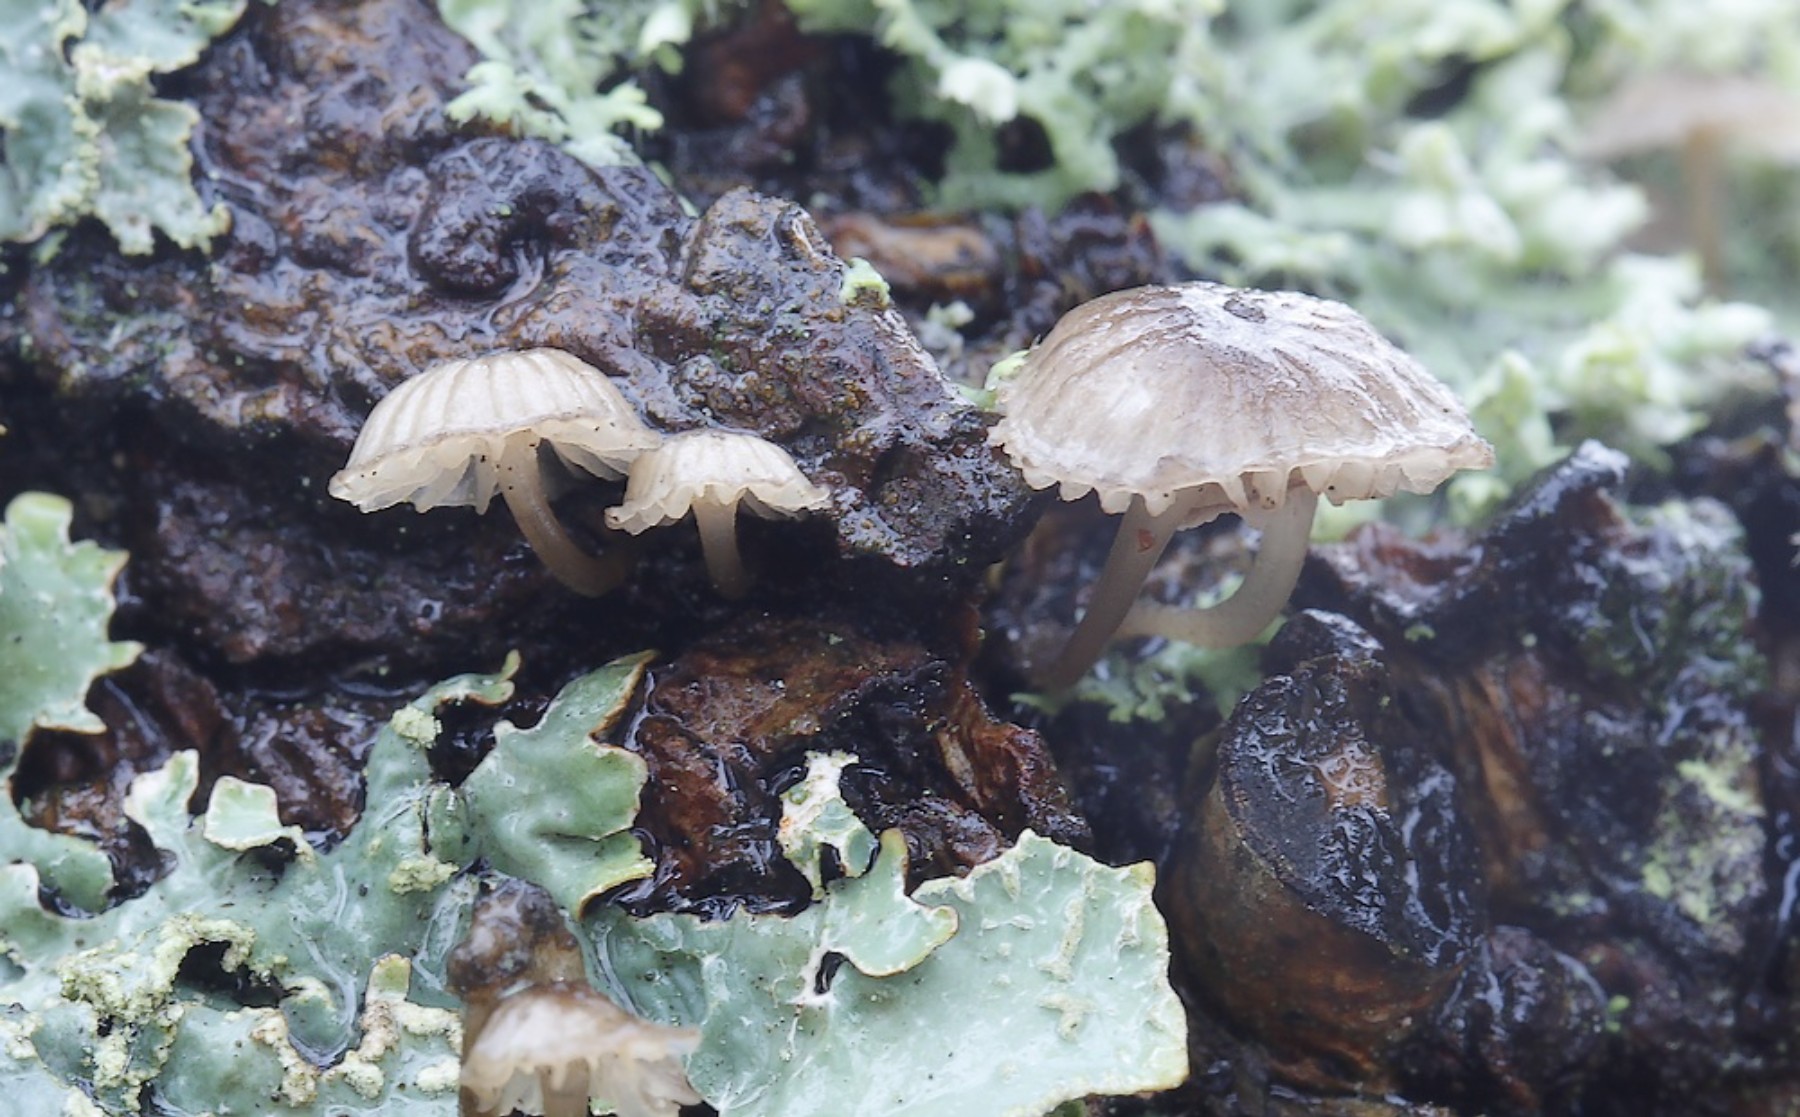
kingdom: Fungi
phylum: Basidiomycota
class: Agaricomycetes
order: Agaricales
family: Porotheleaceae
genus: Phloeomana
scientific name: Phloeomana speirea
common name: kvist-huesvamp
